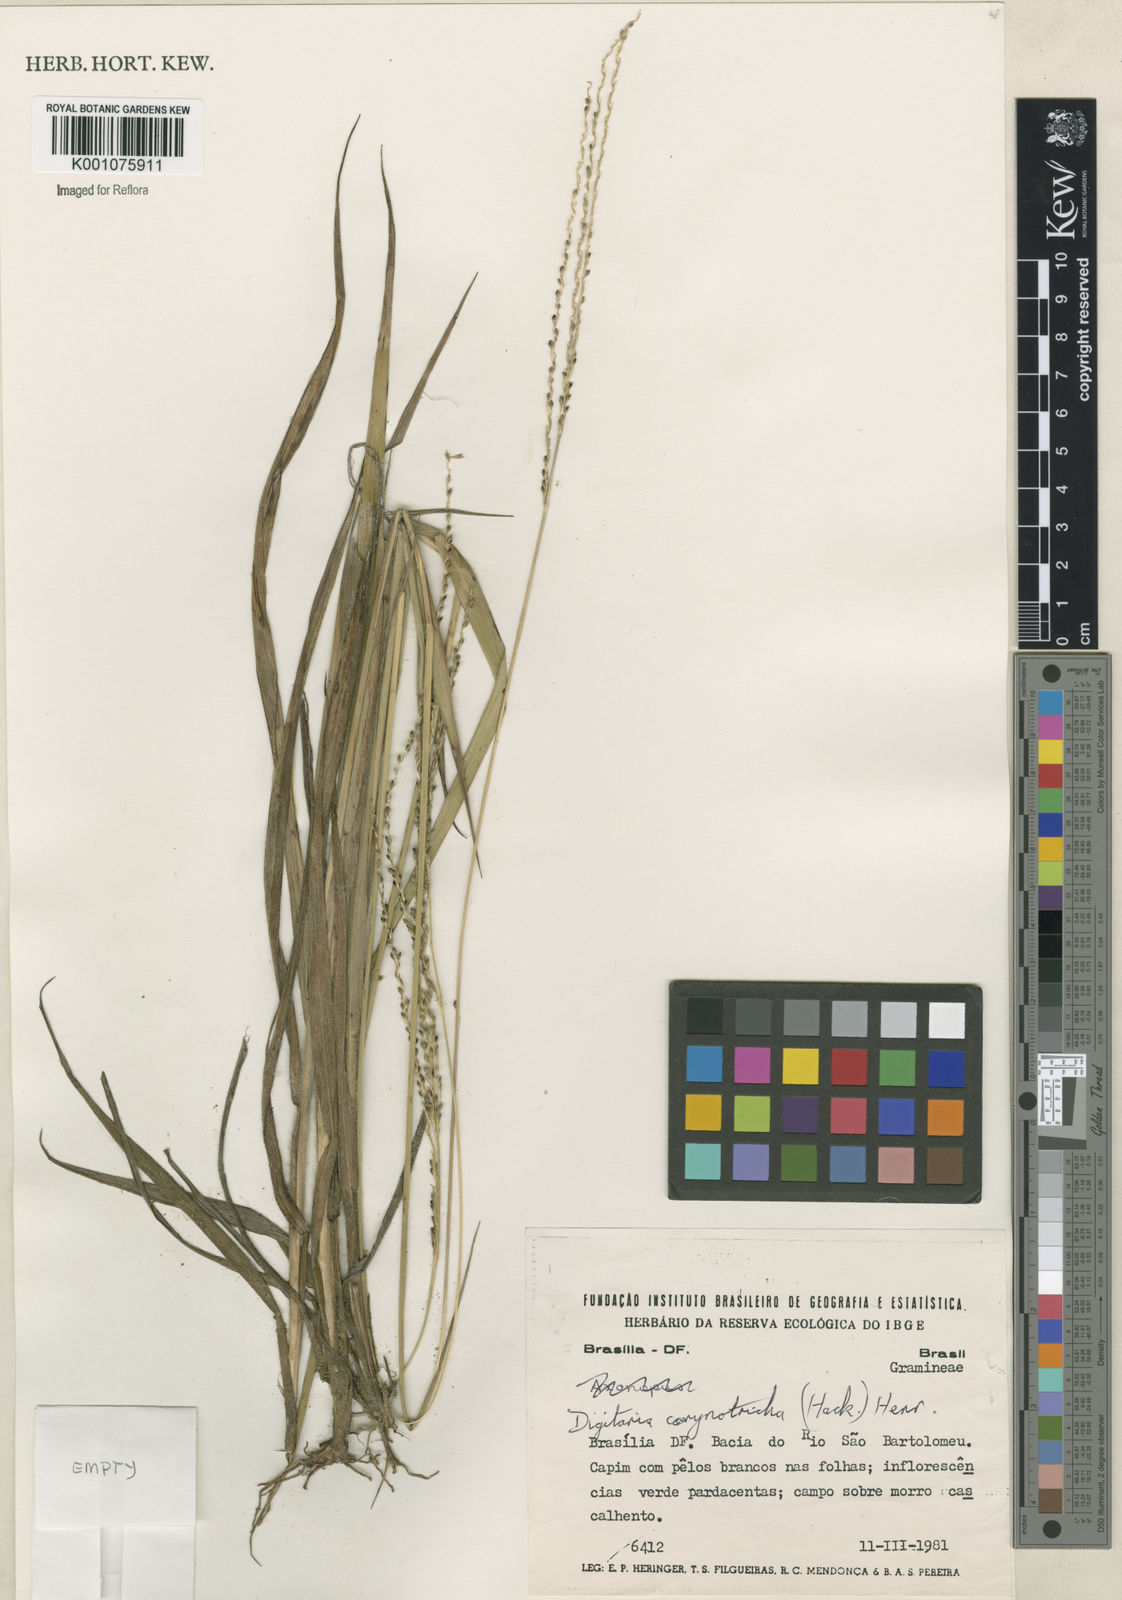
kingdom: Plantae
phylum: Tracheophyta
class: Liliopsida
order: Poales
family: Poaceae
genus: Digitaria
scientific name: Digitaria corynotricha
